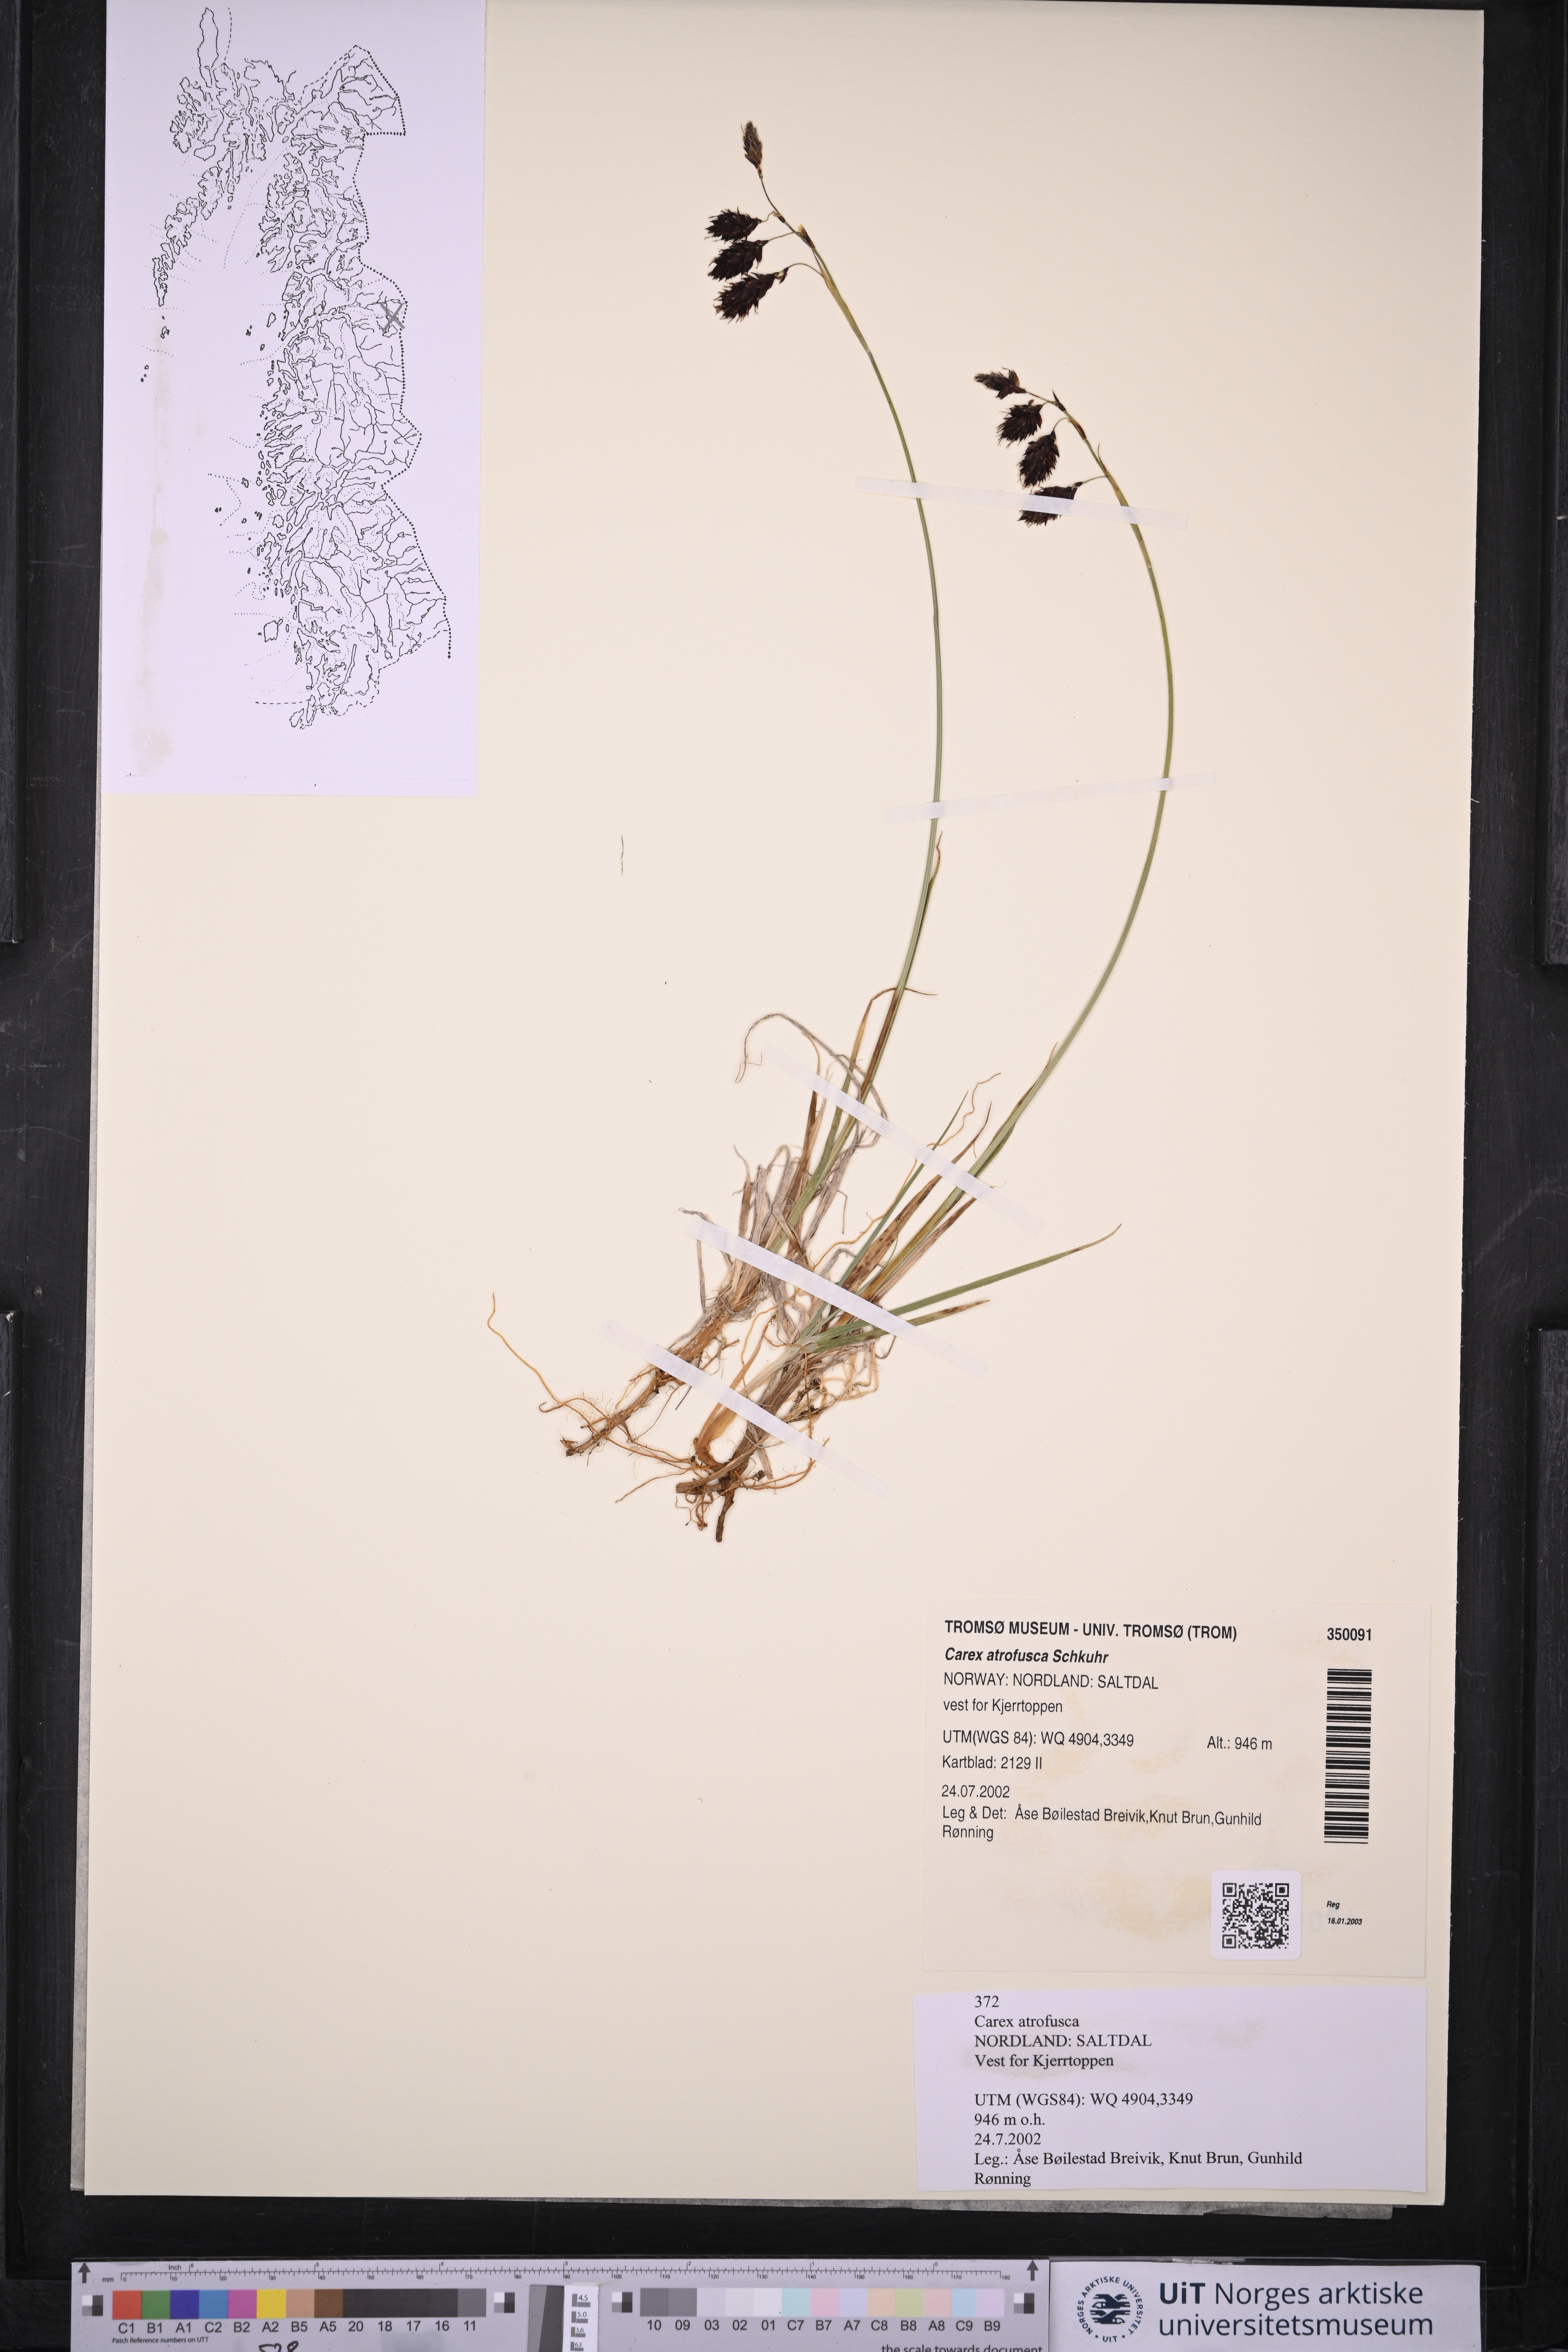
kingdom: Plantae
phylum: Tracheophyta
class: Liliopsida
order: Poales
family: Cyperaceae
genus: Carex
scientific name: Carex atrofusca
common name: Scorched alpine-sedge
